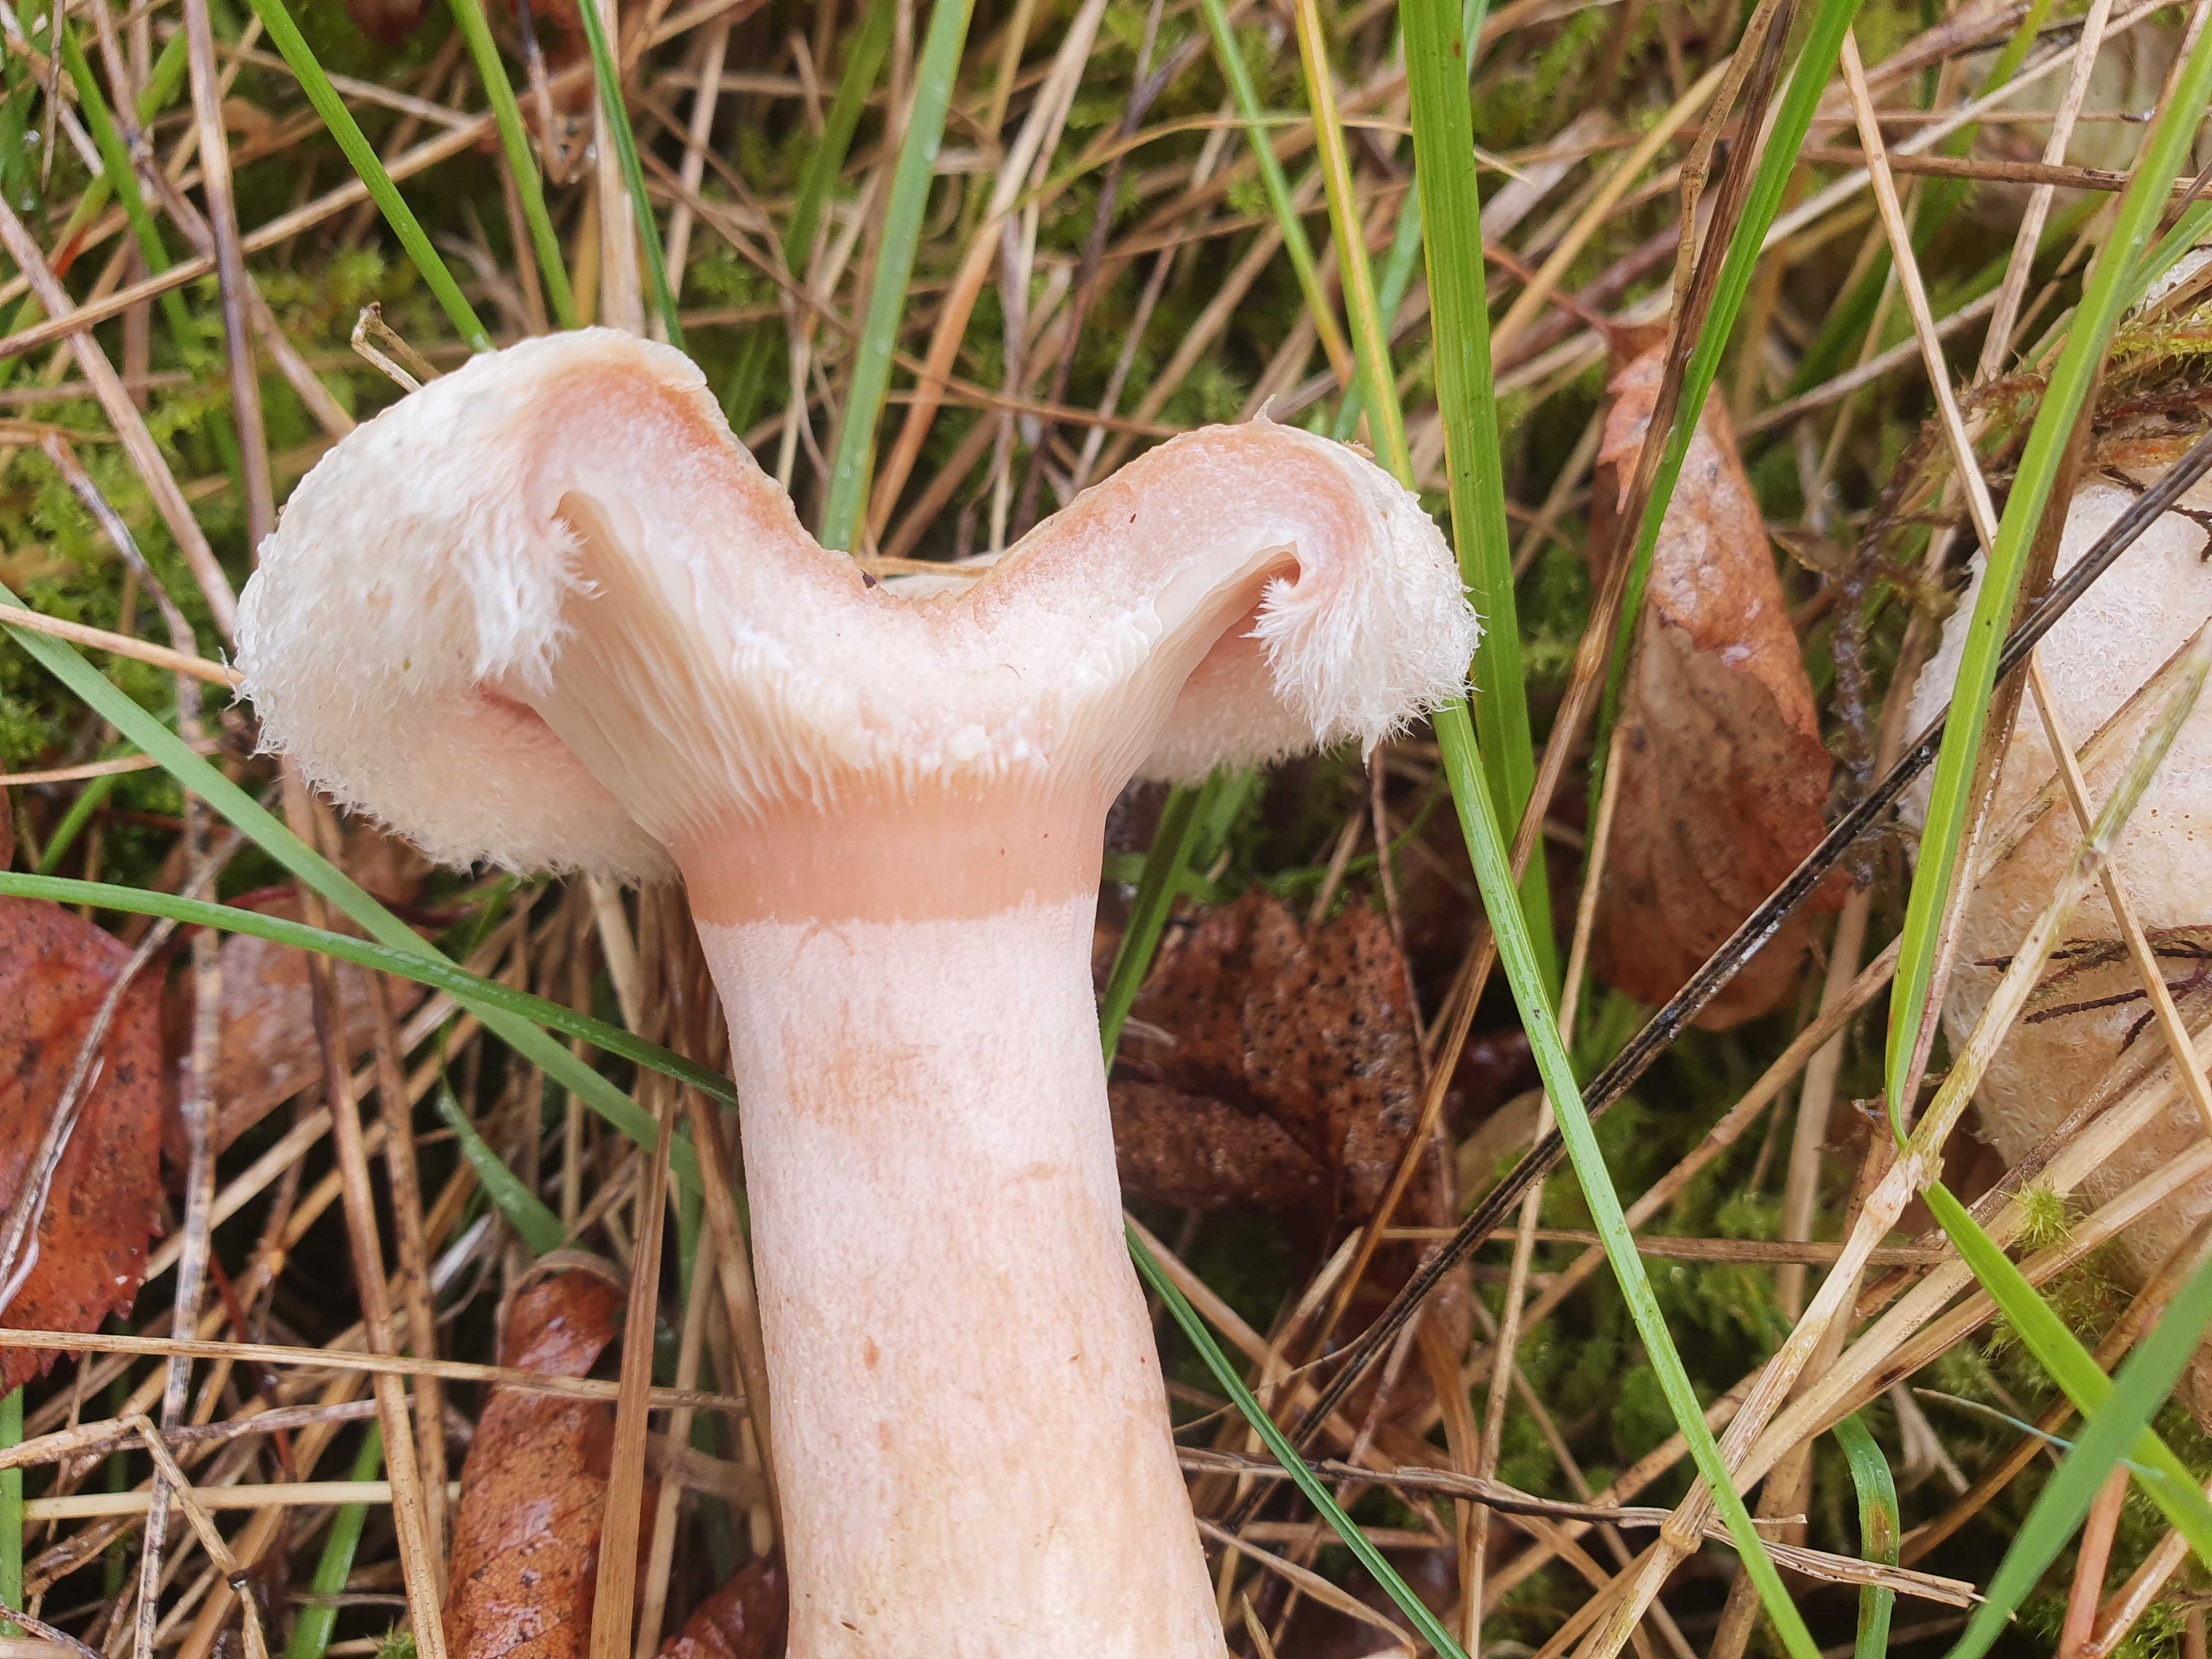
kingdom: Fungi
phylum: Basidiomycota
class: Agaricomycetes
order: Russulales
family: Russulaceae
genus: Lactarius
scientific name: Lactarius torminosus
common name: skægget mælkehat
